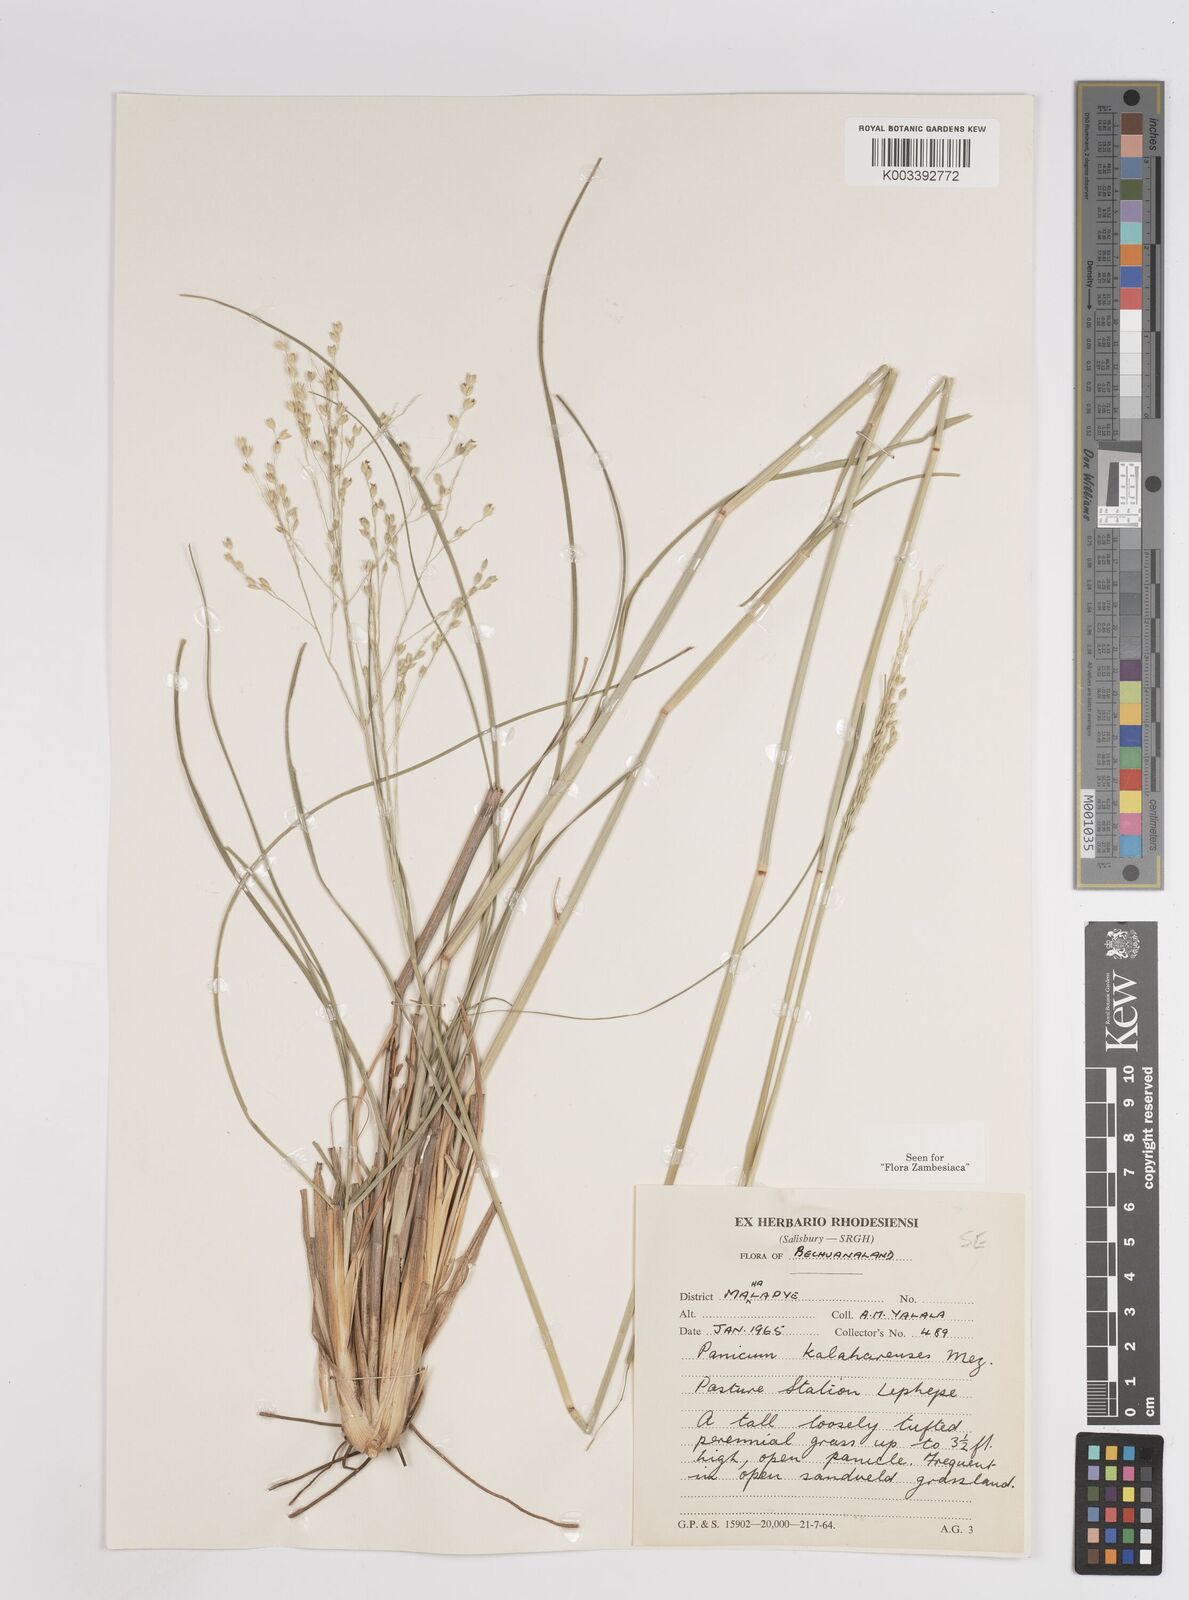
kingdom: Plantae
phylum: Tracheophyta
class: Liliopsida
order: Poales
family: Poaceae
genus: Panicum
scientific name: Panicum kalaharense
